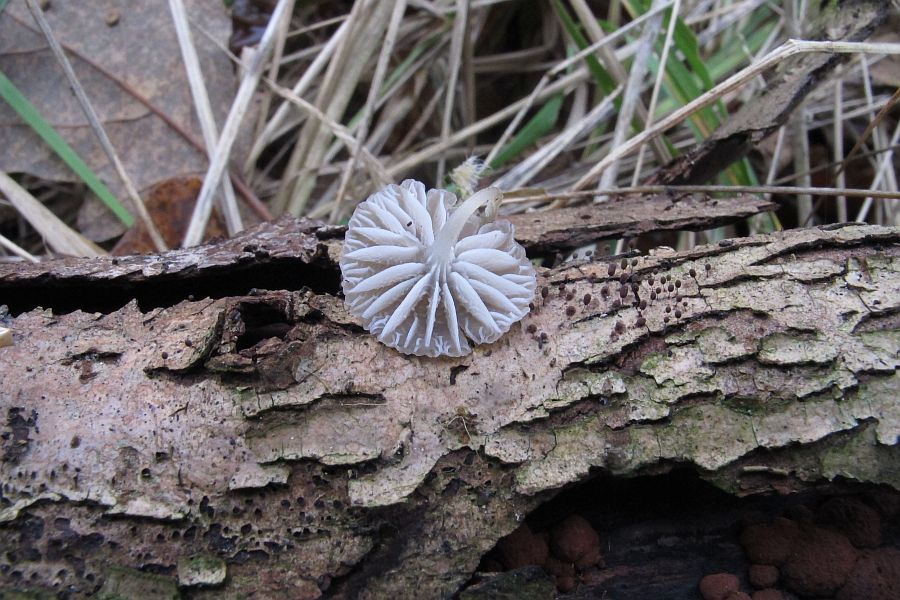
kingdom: Fungi
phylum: Basidiomycota
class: Agaricomycetes
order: Agaricales
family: Porotheleaceae
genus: Phloeomana
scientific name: Phloeomana speirea
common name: kvist-huesvamp
